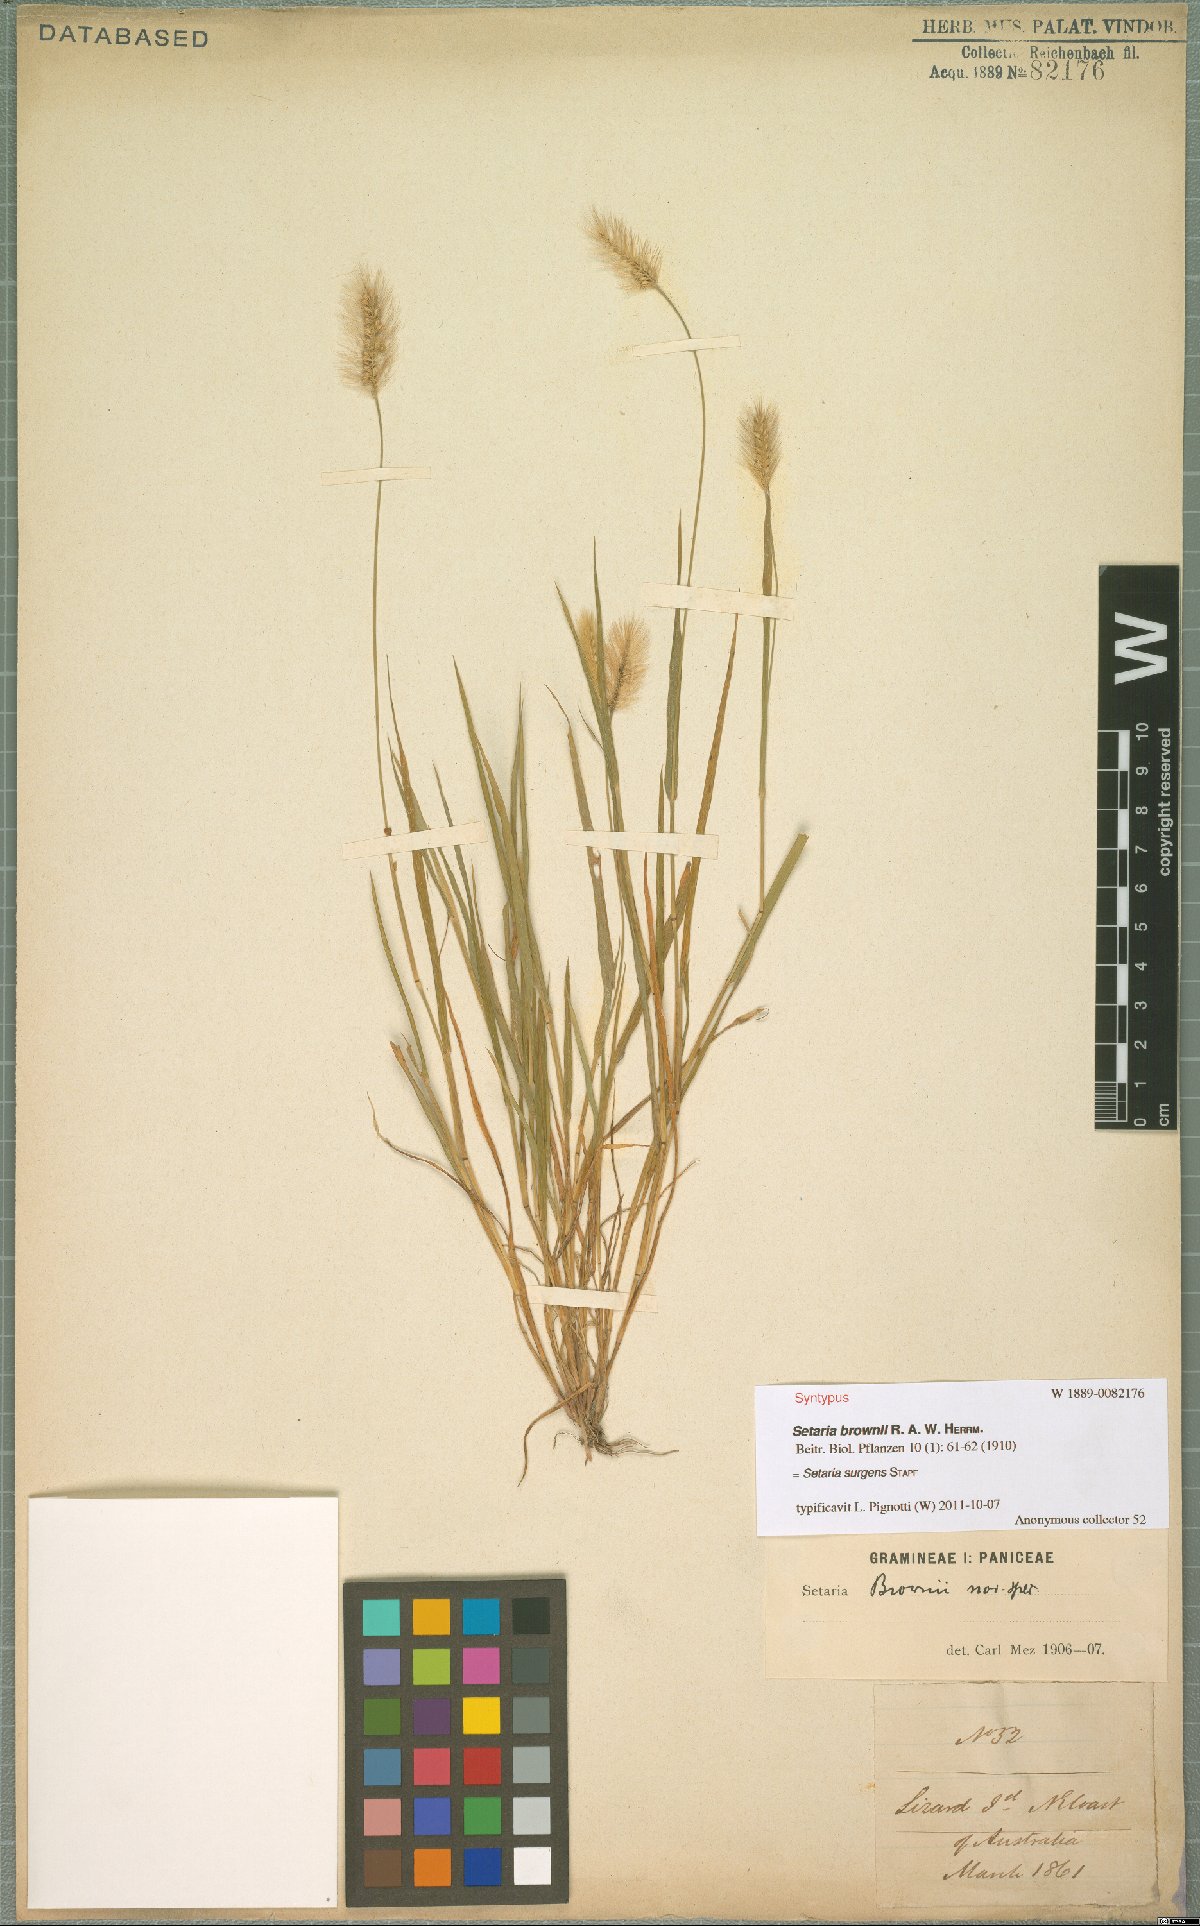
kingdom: Plantae
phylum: Tracheophyta
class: Liliopsida
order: Poales
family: Poaceae
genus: Setaria
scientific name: Setaria surgens
